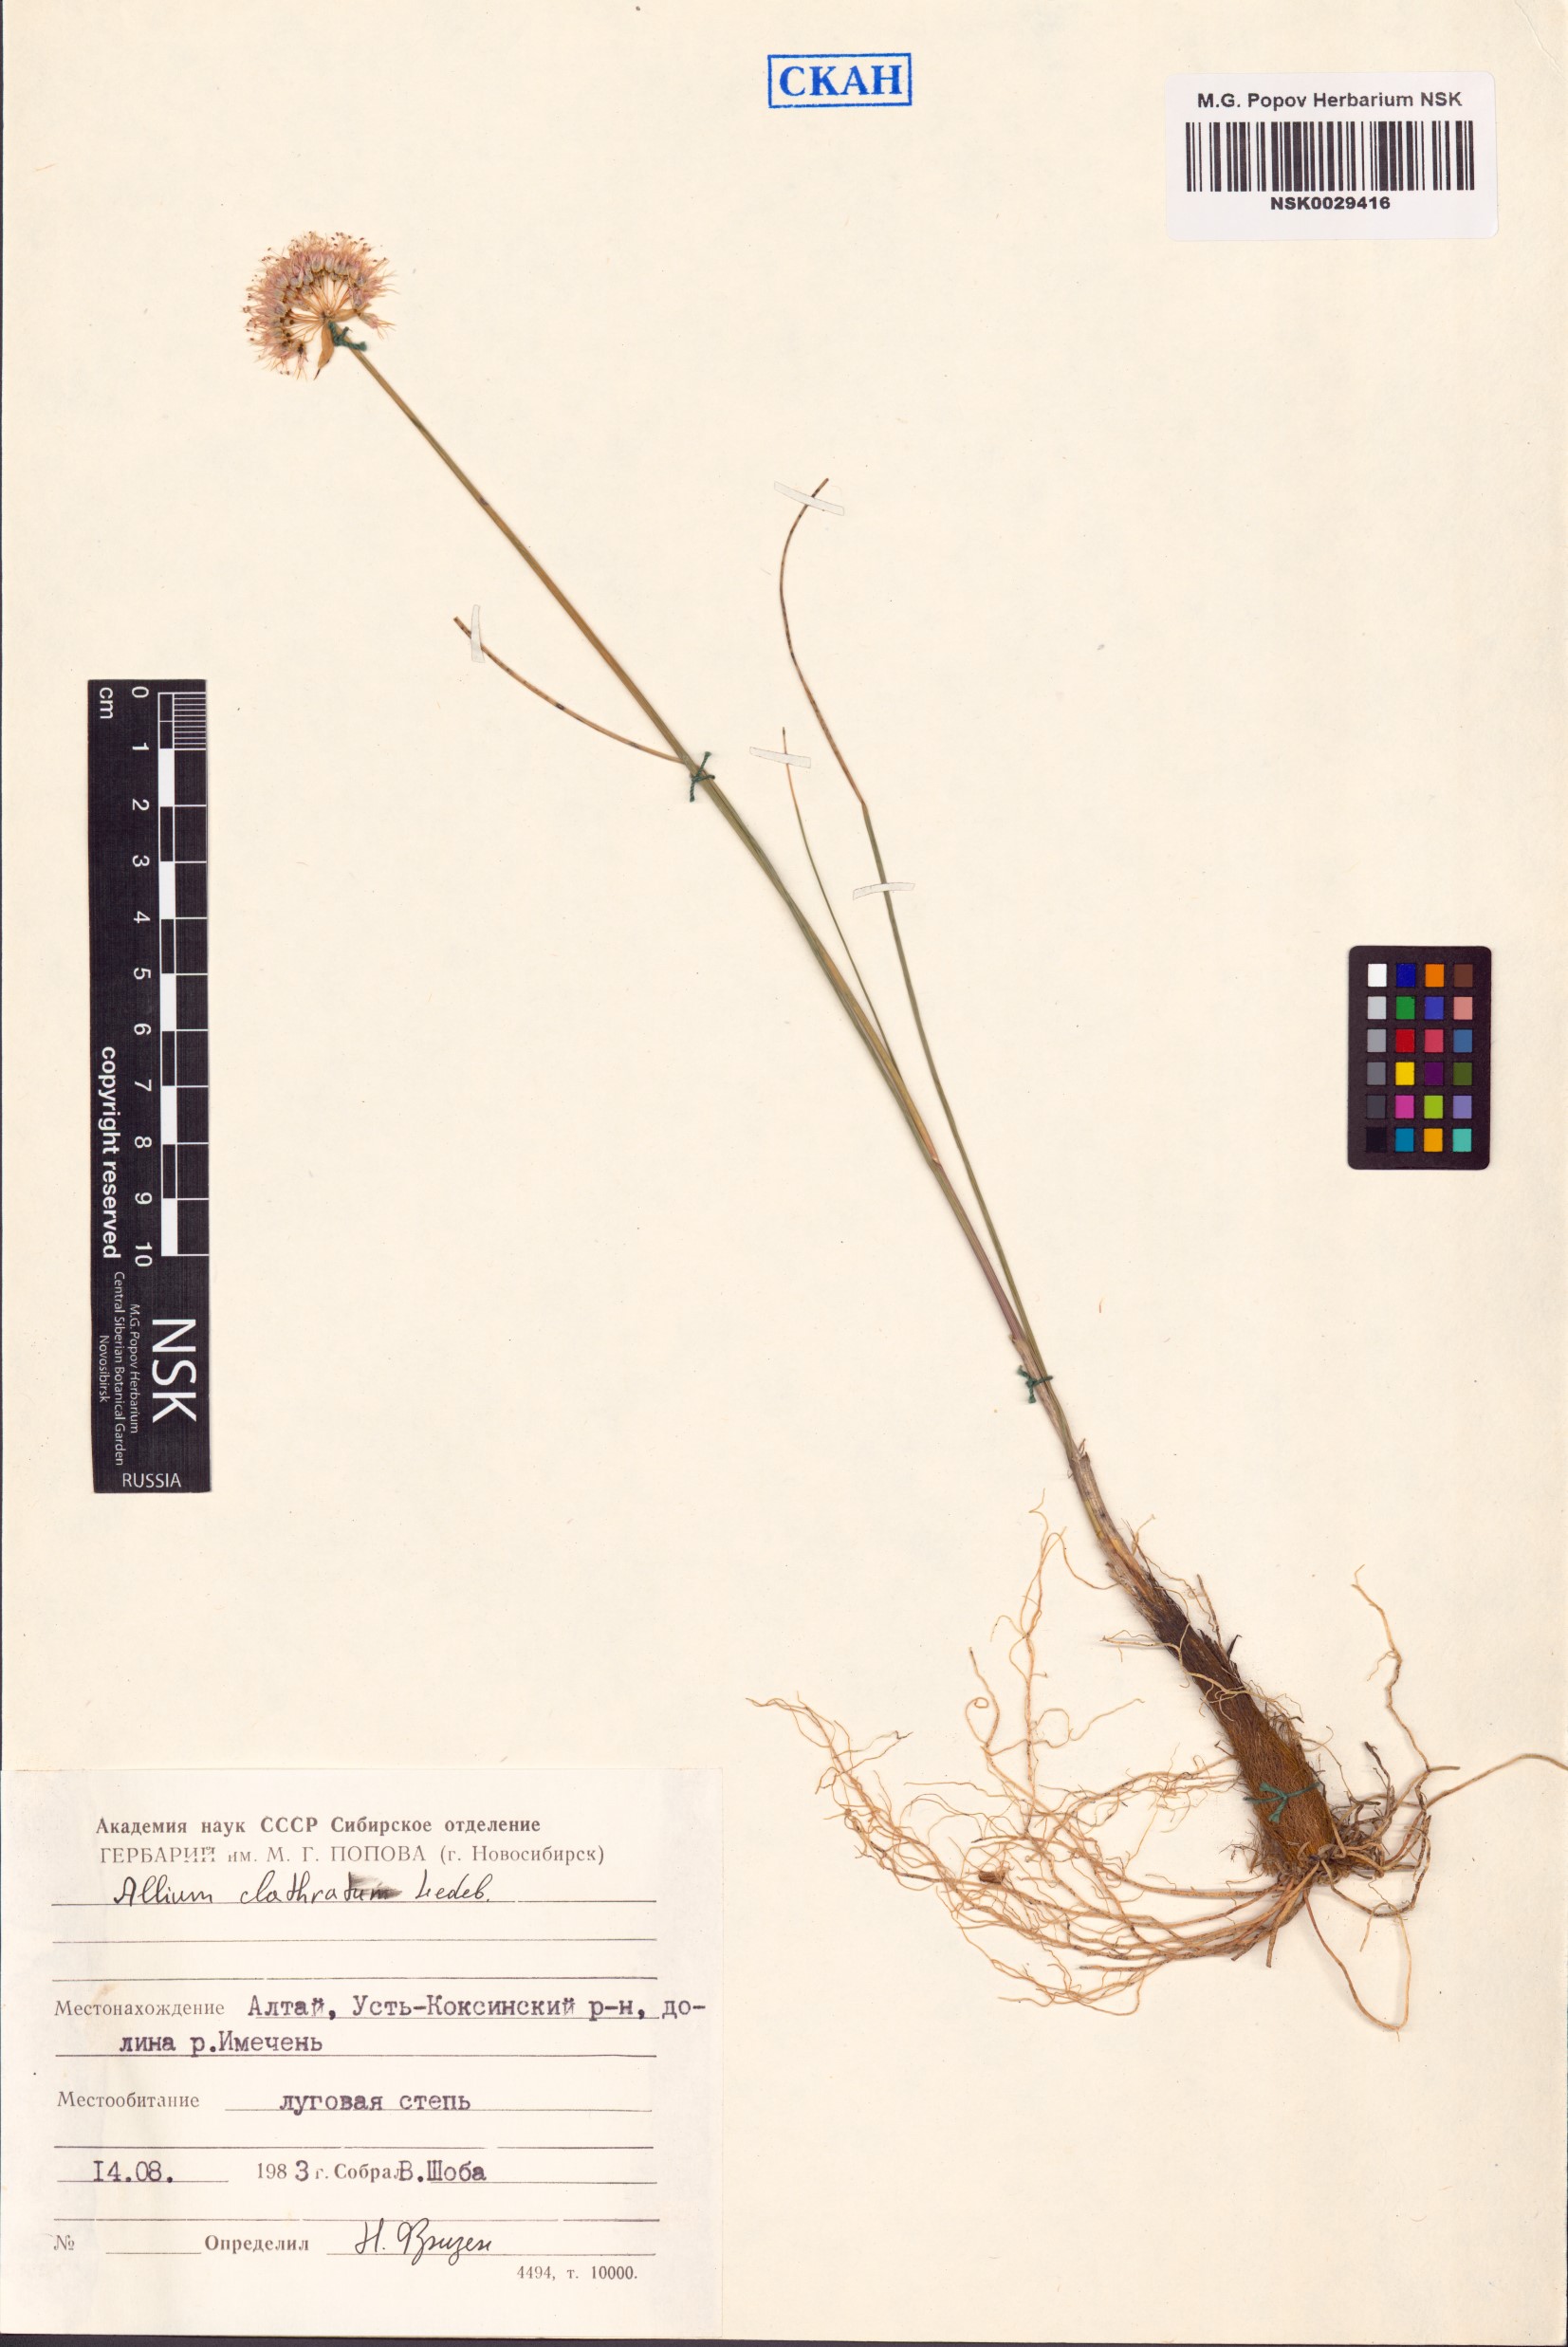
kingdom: Plantae
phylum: Tracheophyta
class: Liliopsida
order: Asparagales
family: Amaryllidaceae
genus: Allium
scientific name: Allium clathratum
